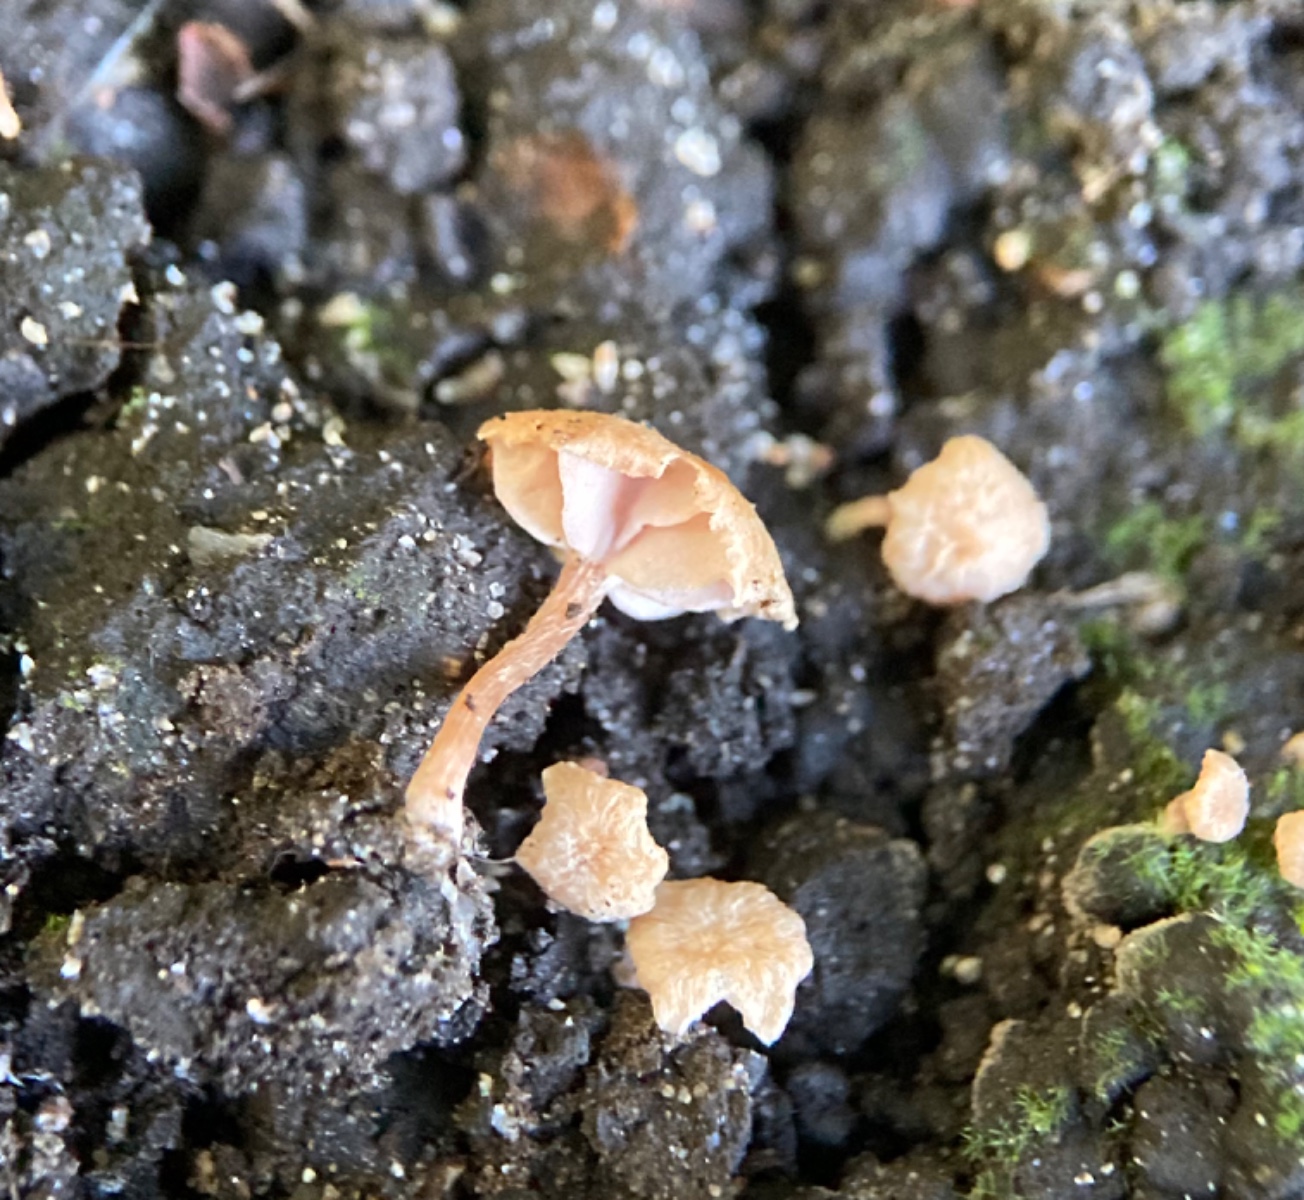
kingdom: Fungi
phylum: Basidiomycota
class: Agaricomycetes
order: Agaricales
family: Hydnangiaceae
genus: Laccaria
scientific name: Laccaria tortilis
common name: krybende ametysthat
